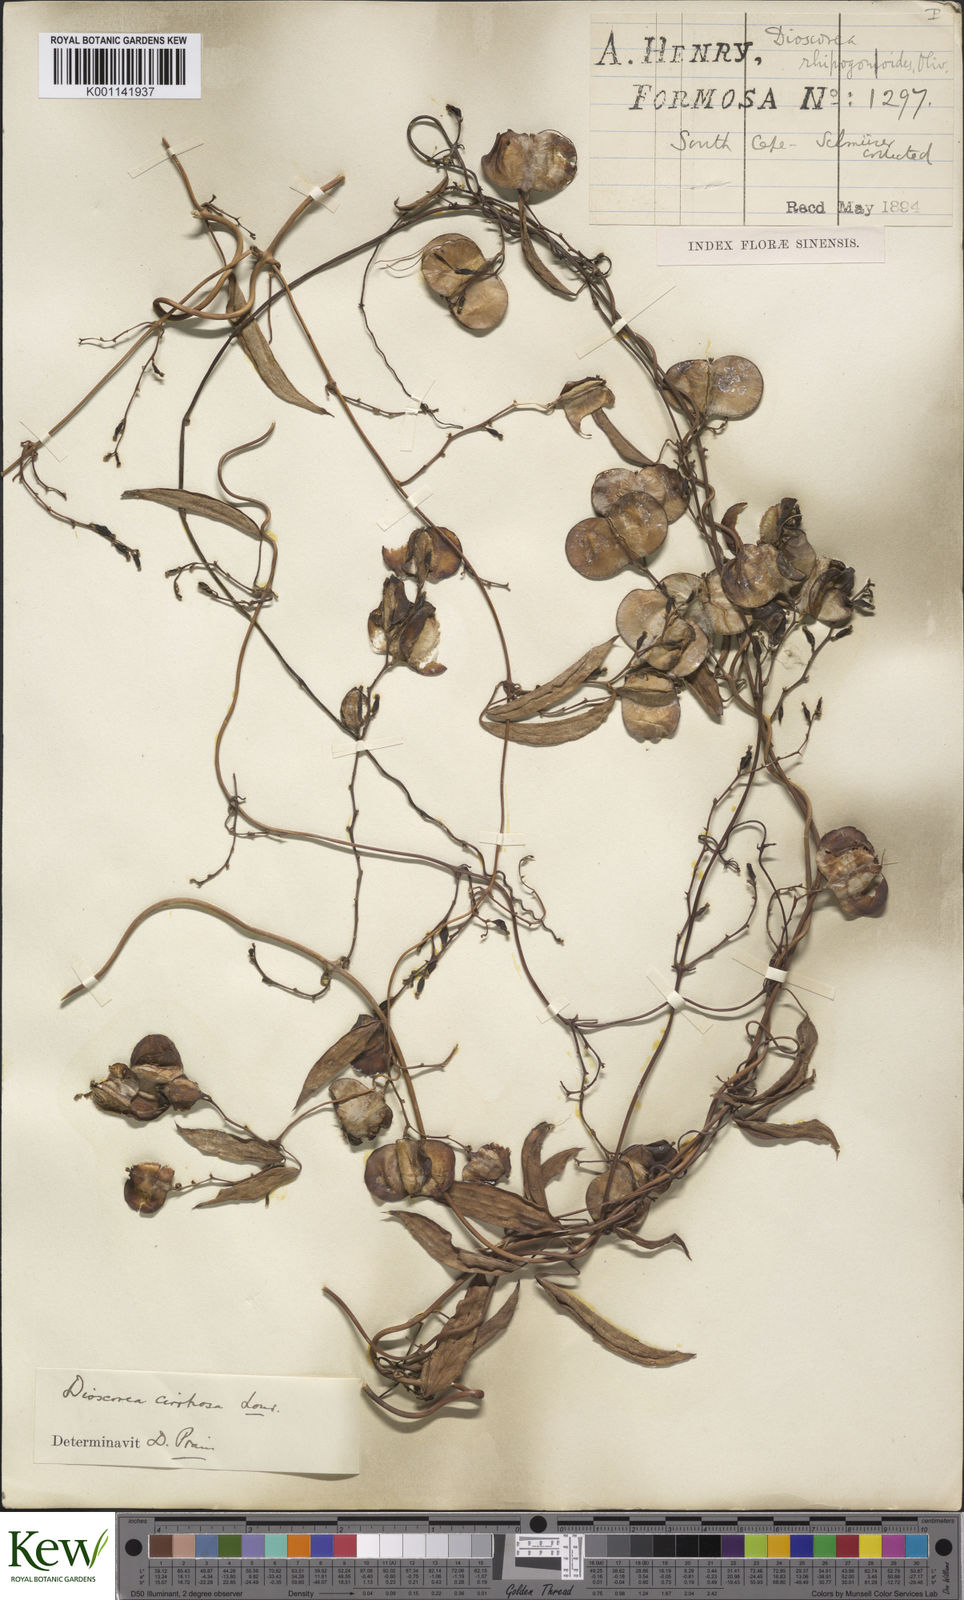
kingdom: Plantae
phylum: Tracheophyta
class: Liliopsida
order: Dioscoreales
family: Dioscoreaceae
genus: Dioscorea
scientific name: Dioscorea cirrhosa
